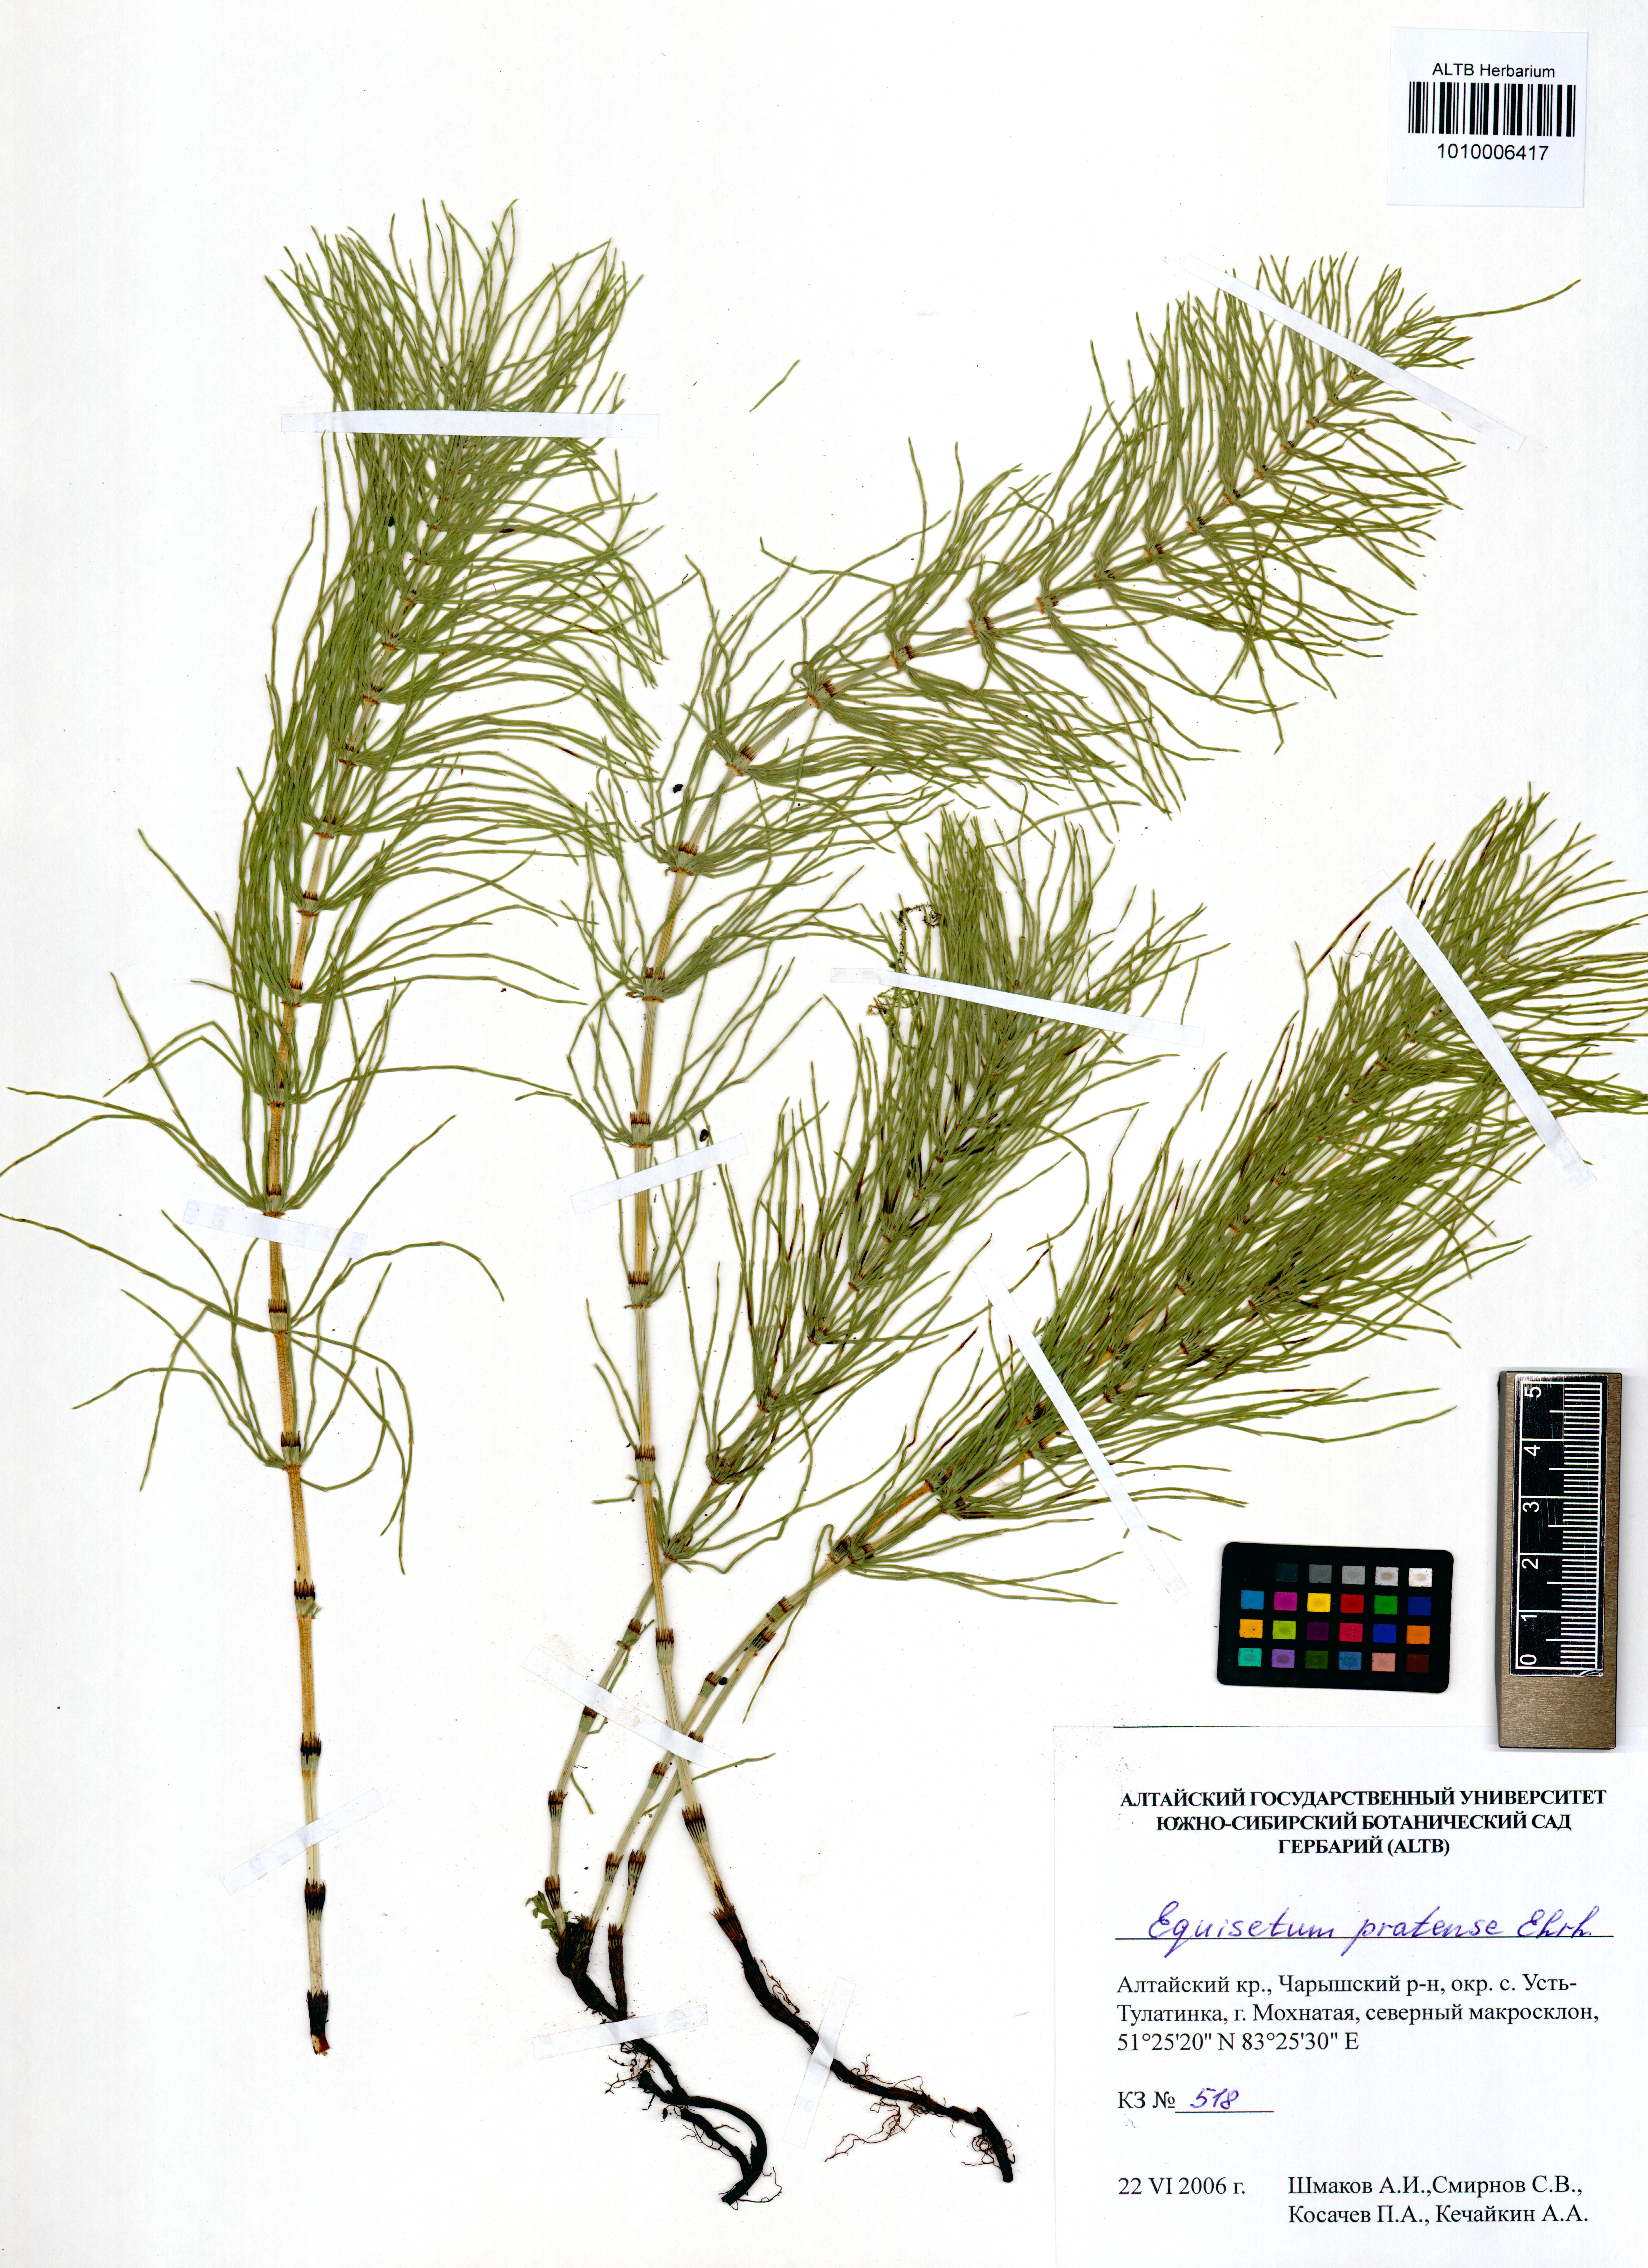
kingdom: Plantae
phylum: Tracheophyta
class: Polypodiopsida
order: Equisetales
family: Equisetaceae
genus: Equisetum
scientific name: Equisetum pratense
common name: Meadow horsetail
